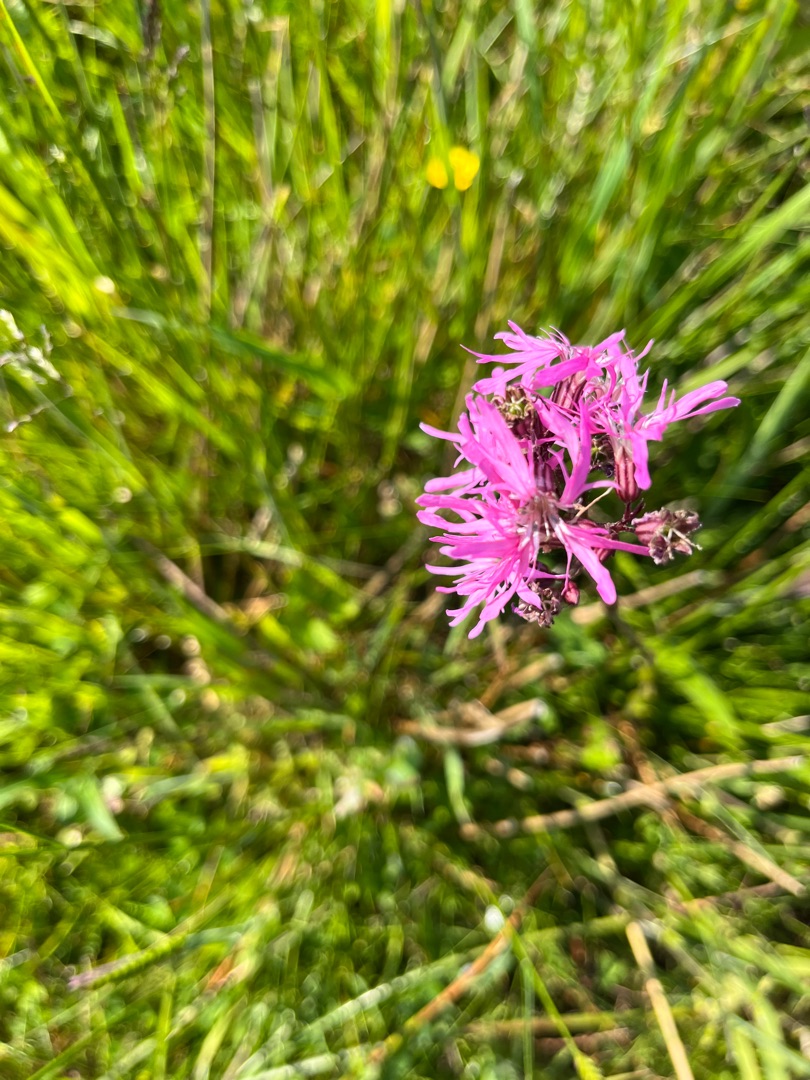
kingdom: Plantae
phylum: Tracheophyta
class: Magnoliopsida
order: Caryophyllales
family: Caryophyllaceae
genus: Silene
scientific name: Silene flos-cuculi
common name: Trævlekrone
